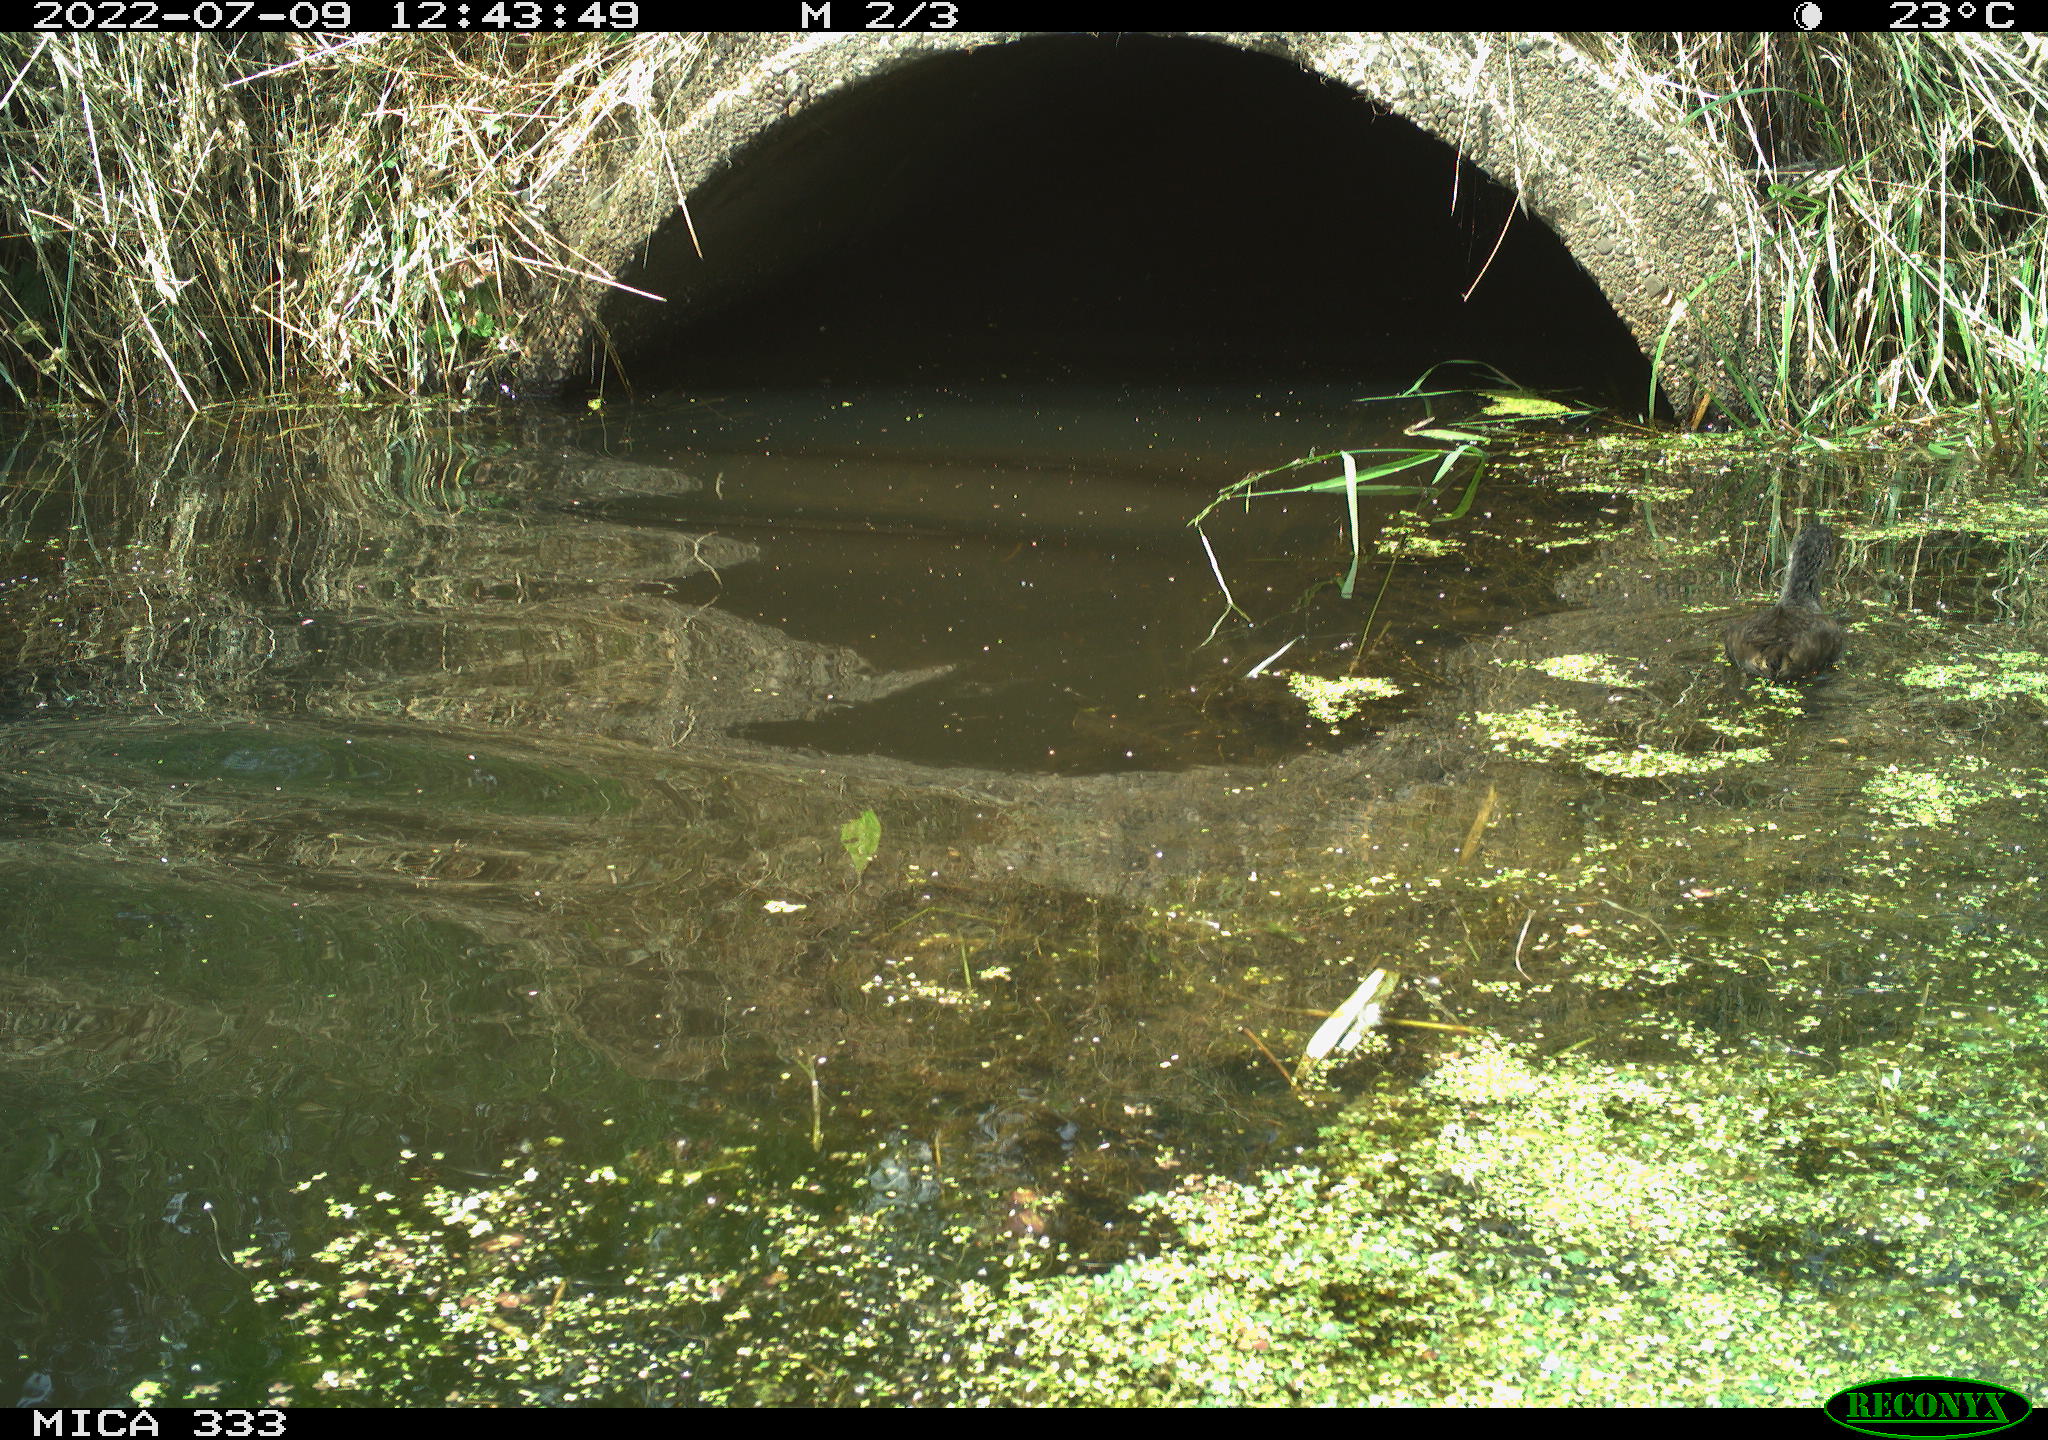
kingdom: Animalia
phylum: Chordata
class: Aves
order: Gruiformes
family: Rallidae
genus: Gallinula
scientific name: Gallinula chloropus
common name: Common moorhen
